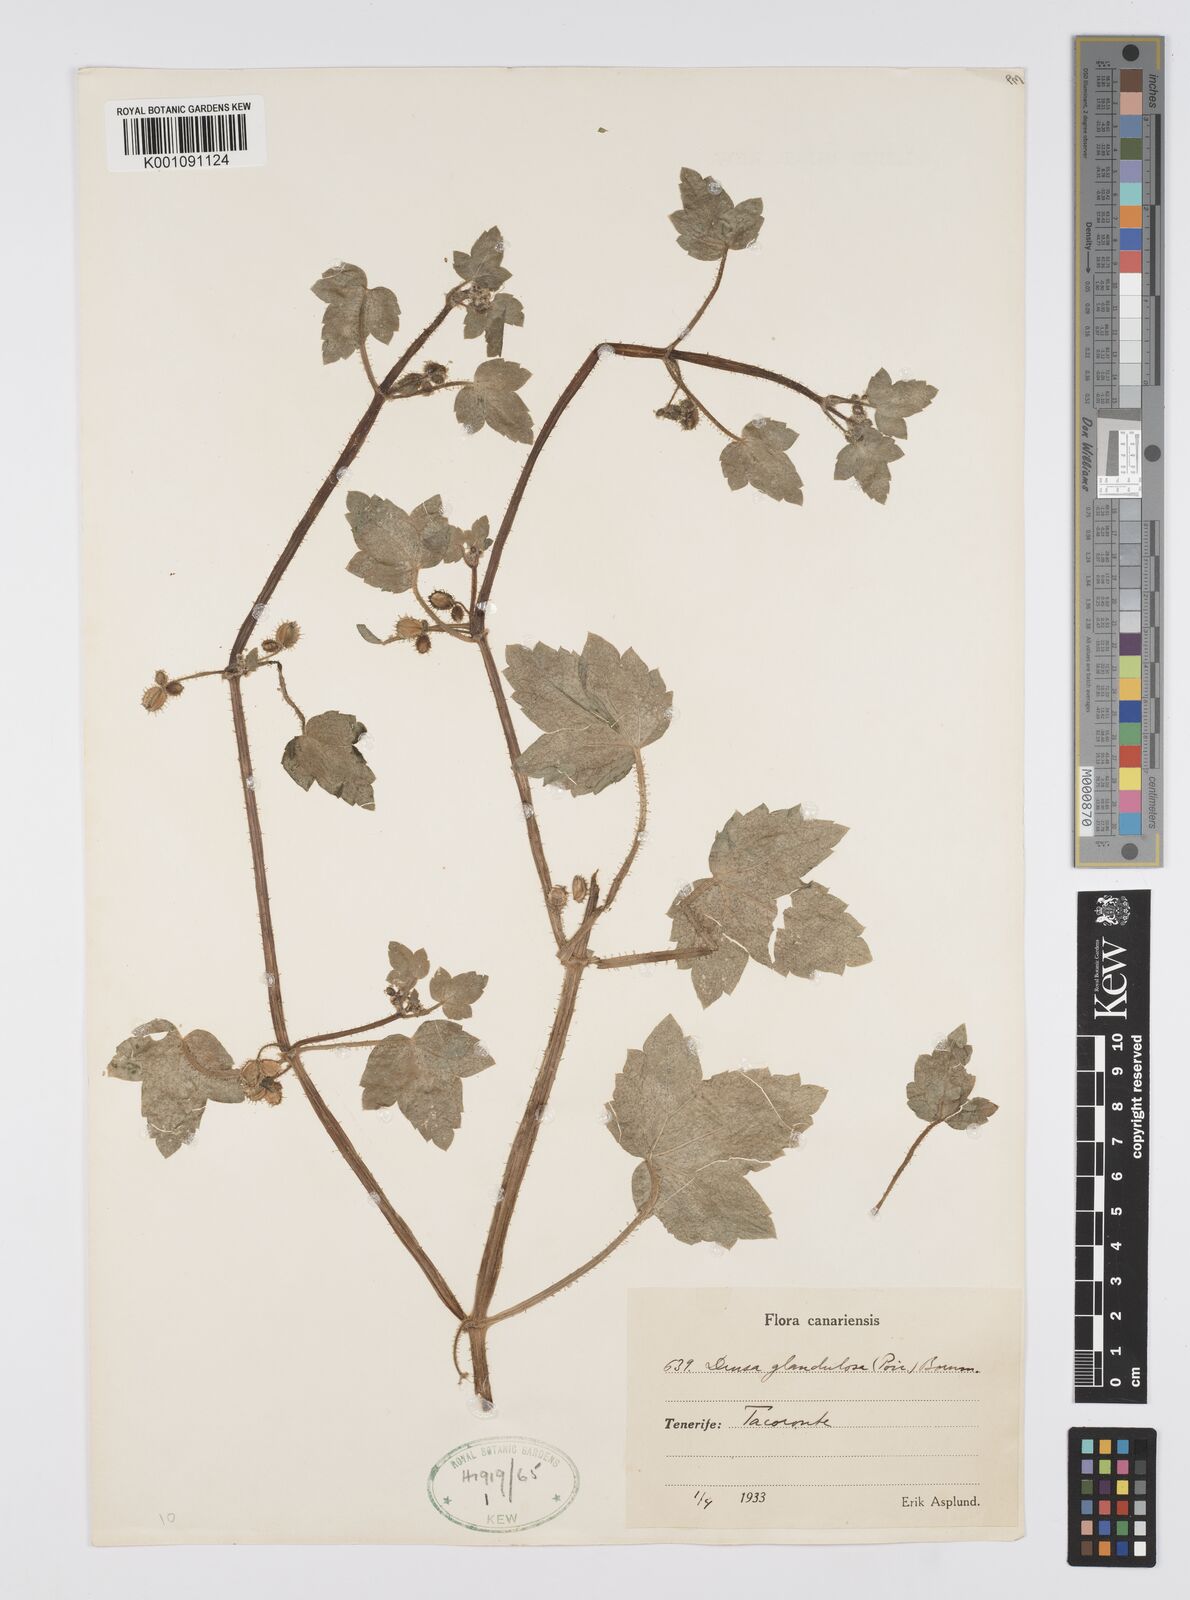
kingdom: Plantae
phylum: Tracheophyta
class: Magnoliopsida
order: Apiales
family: Apiaceae
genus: Drusa
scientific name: Drusa glandulosa
